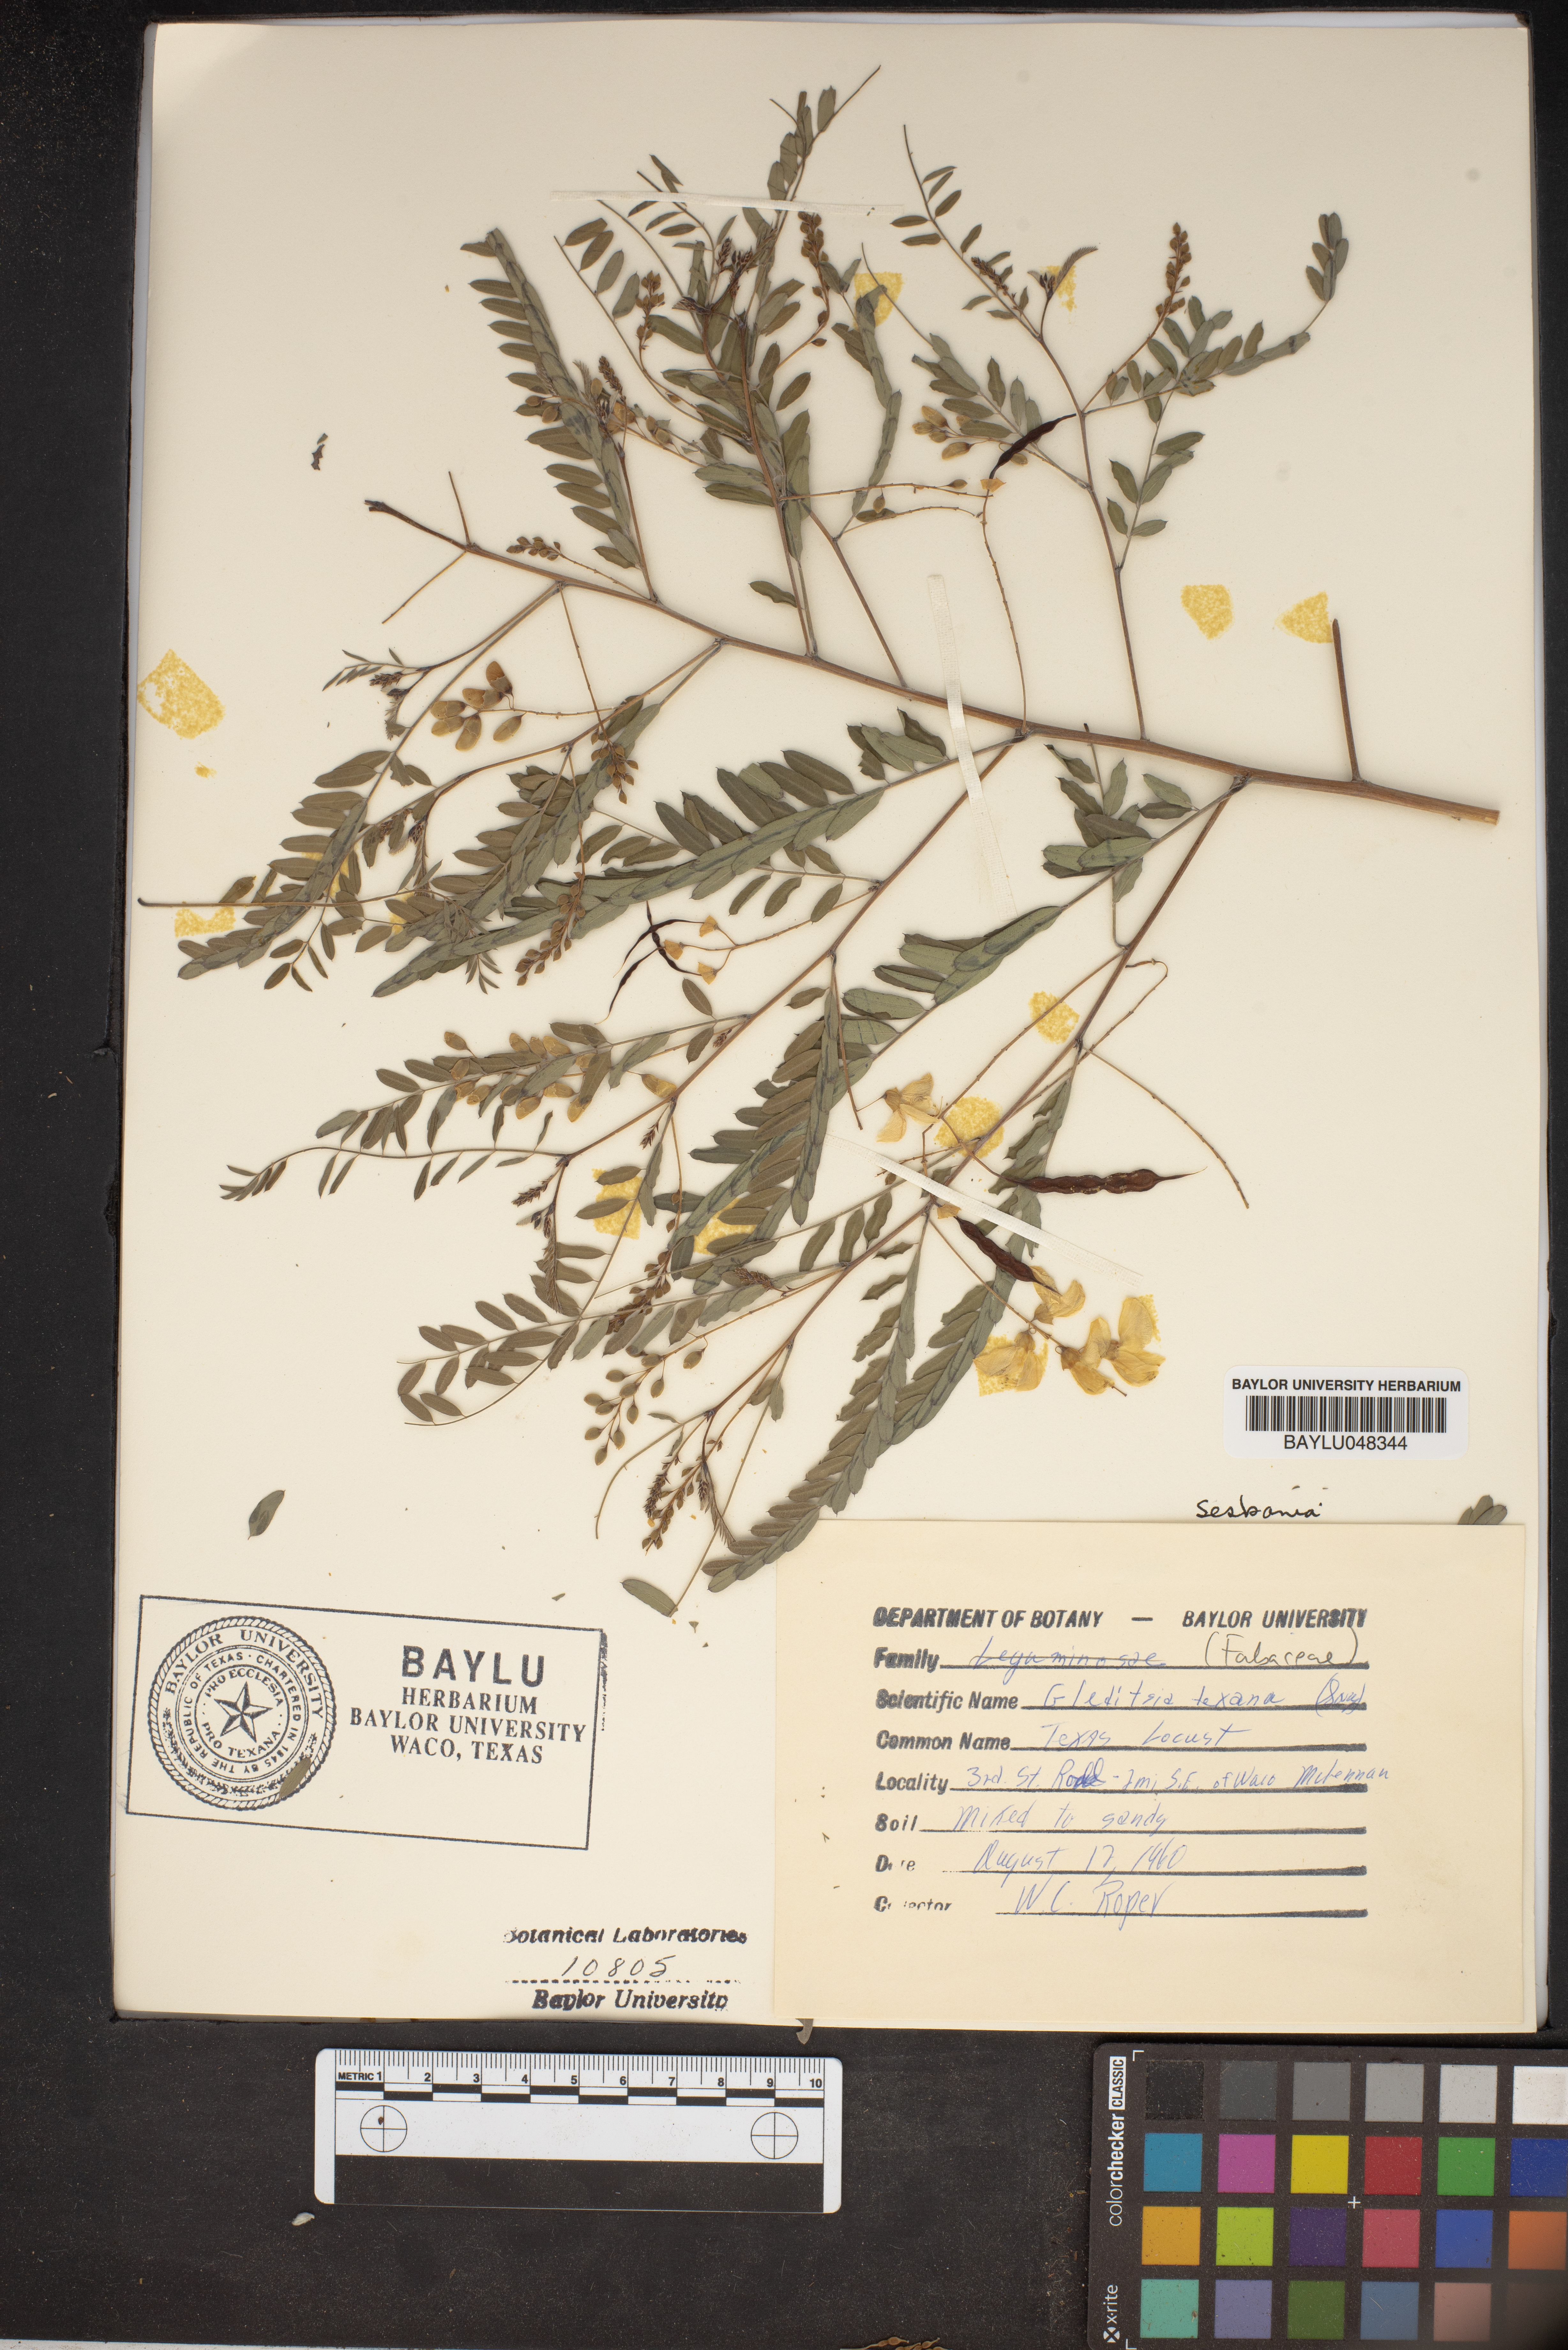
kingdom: Plantae
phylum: Tracheophyta
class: Magnoliopsida
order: Fabales
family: Fabaceae
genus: Gleditsia
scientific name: Gleditsia texana
